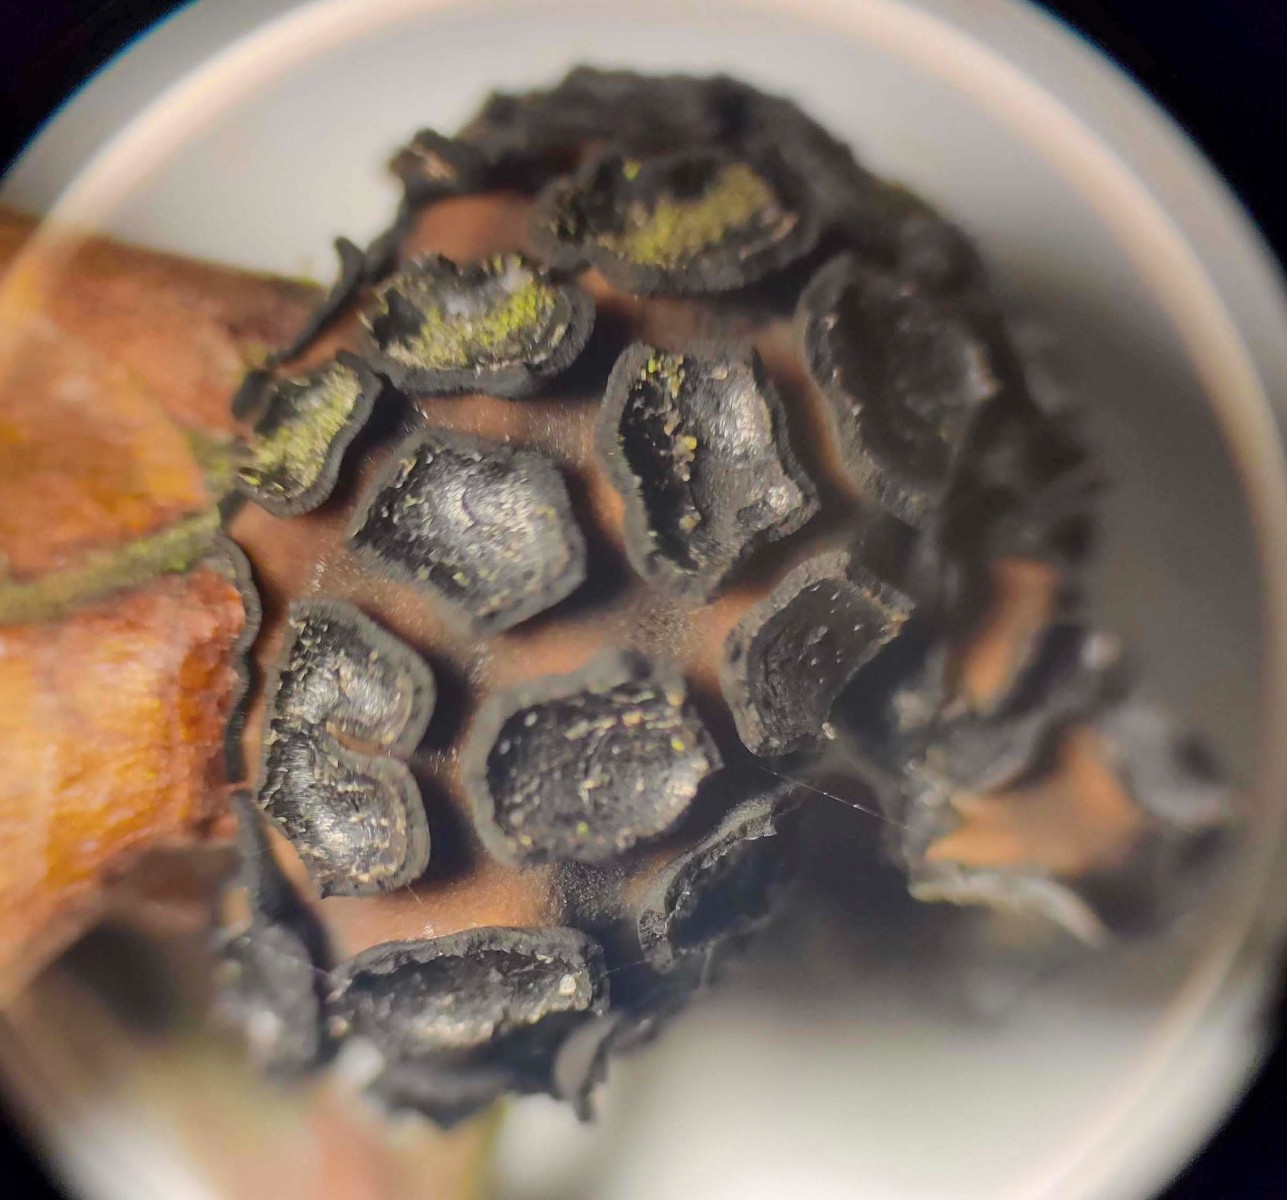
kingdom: Fungi
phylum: Ascomycota
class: Leotiomycetes
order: Rhytismatales
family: Rhytismataceae
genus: Rhytisma
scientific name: Rhytisma salicinum
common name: pile-rynkeplet
